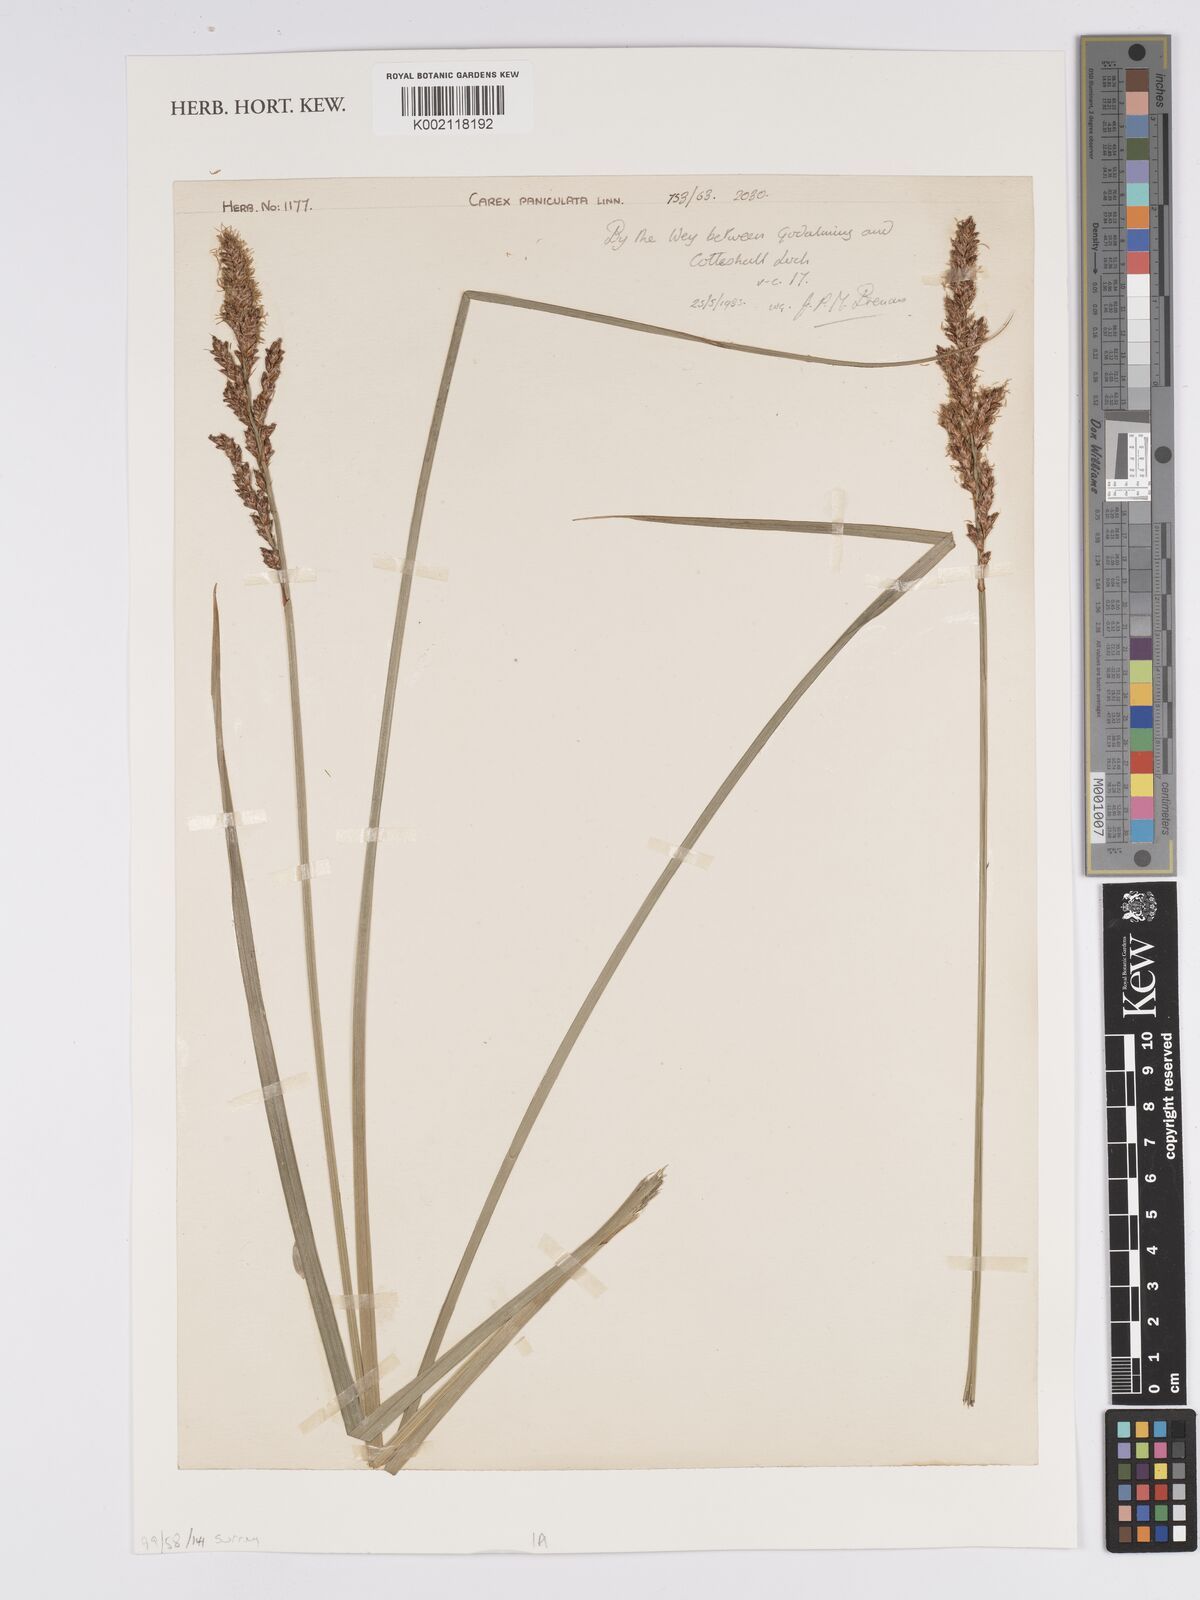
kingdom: Plantae
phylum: Tracheophyta
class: Liliopsida
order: Poales
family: Cyperaceae
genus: Carex
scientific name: Carex paniculata
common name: Greater tussock-sedge
